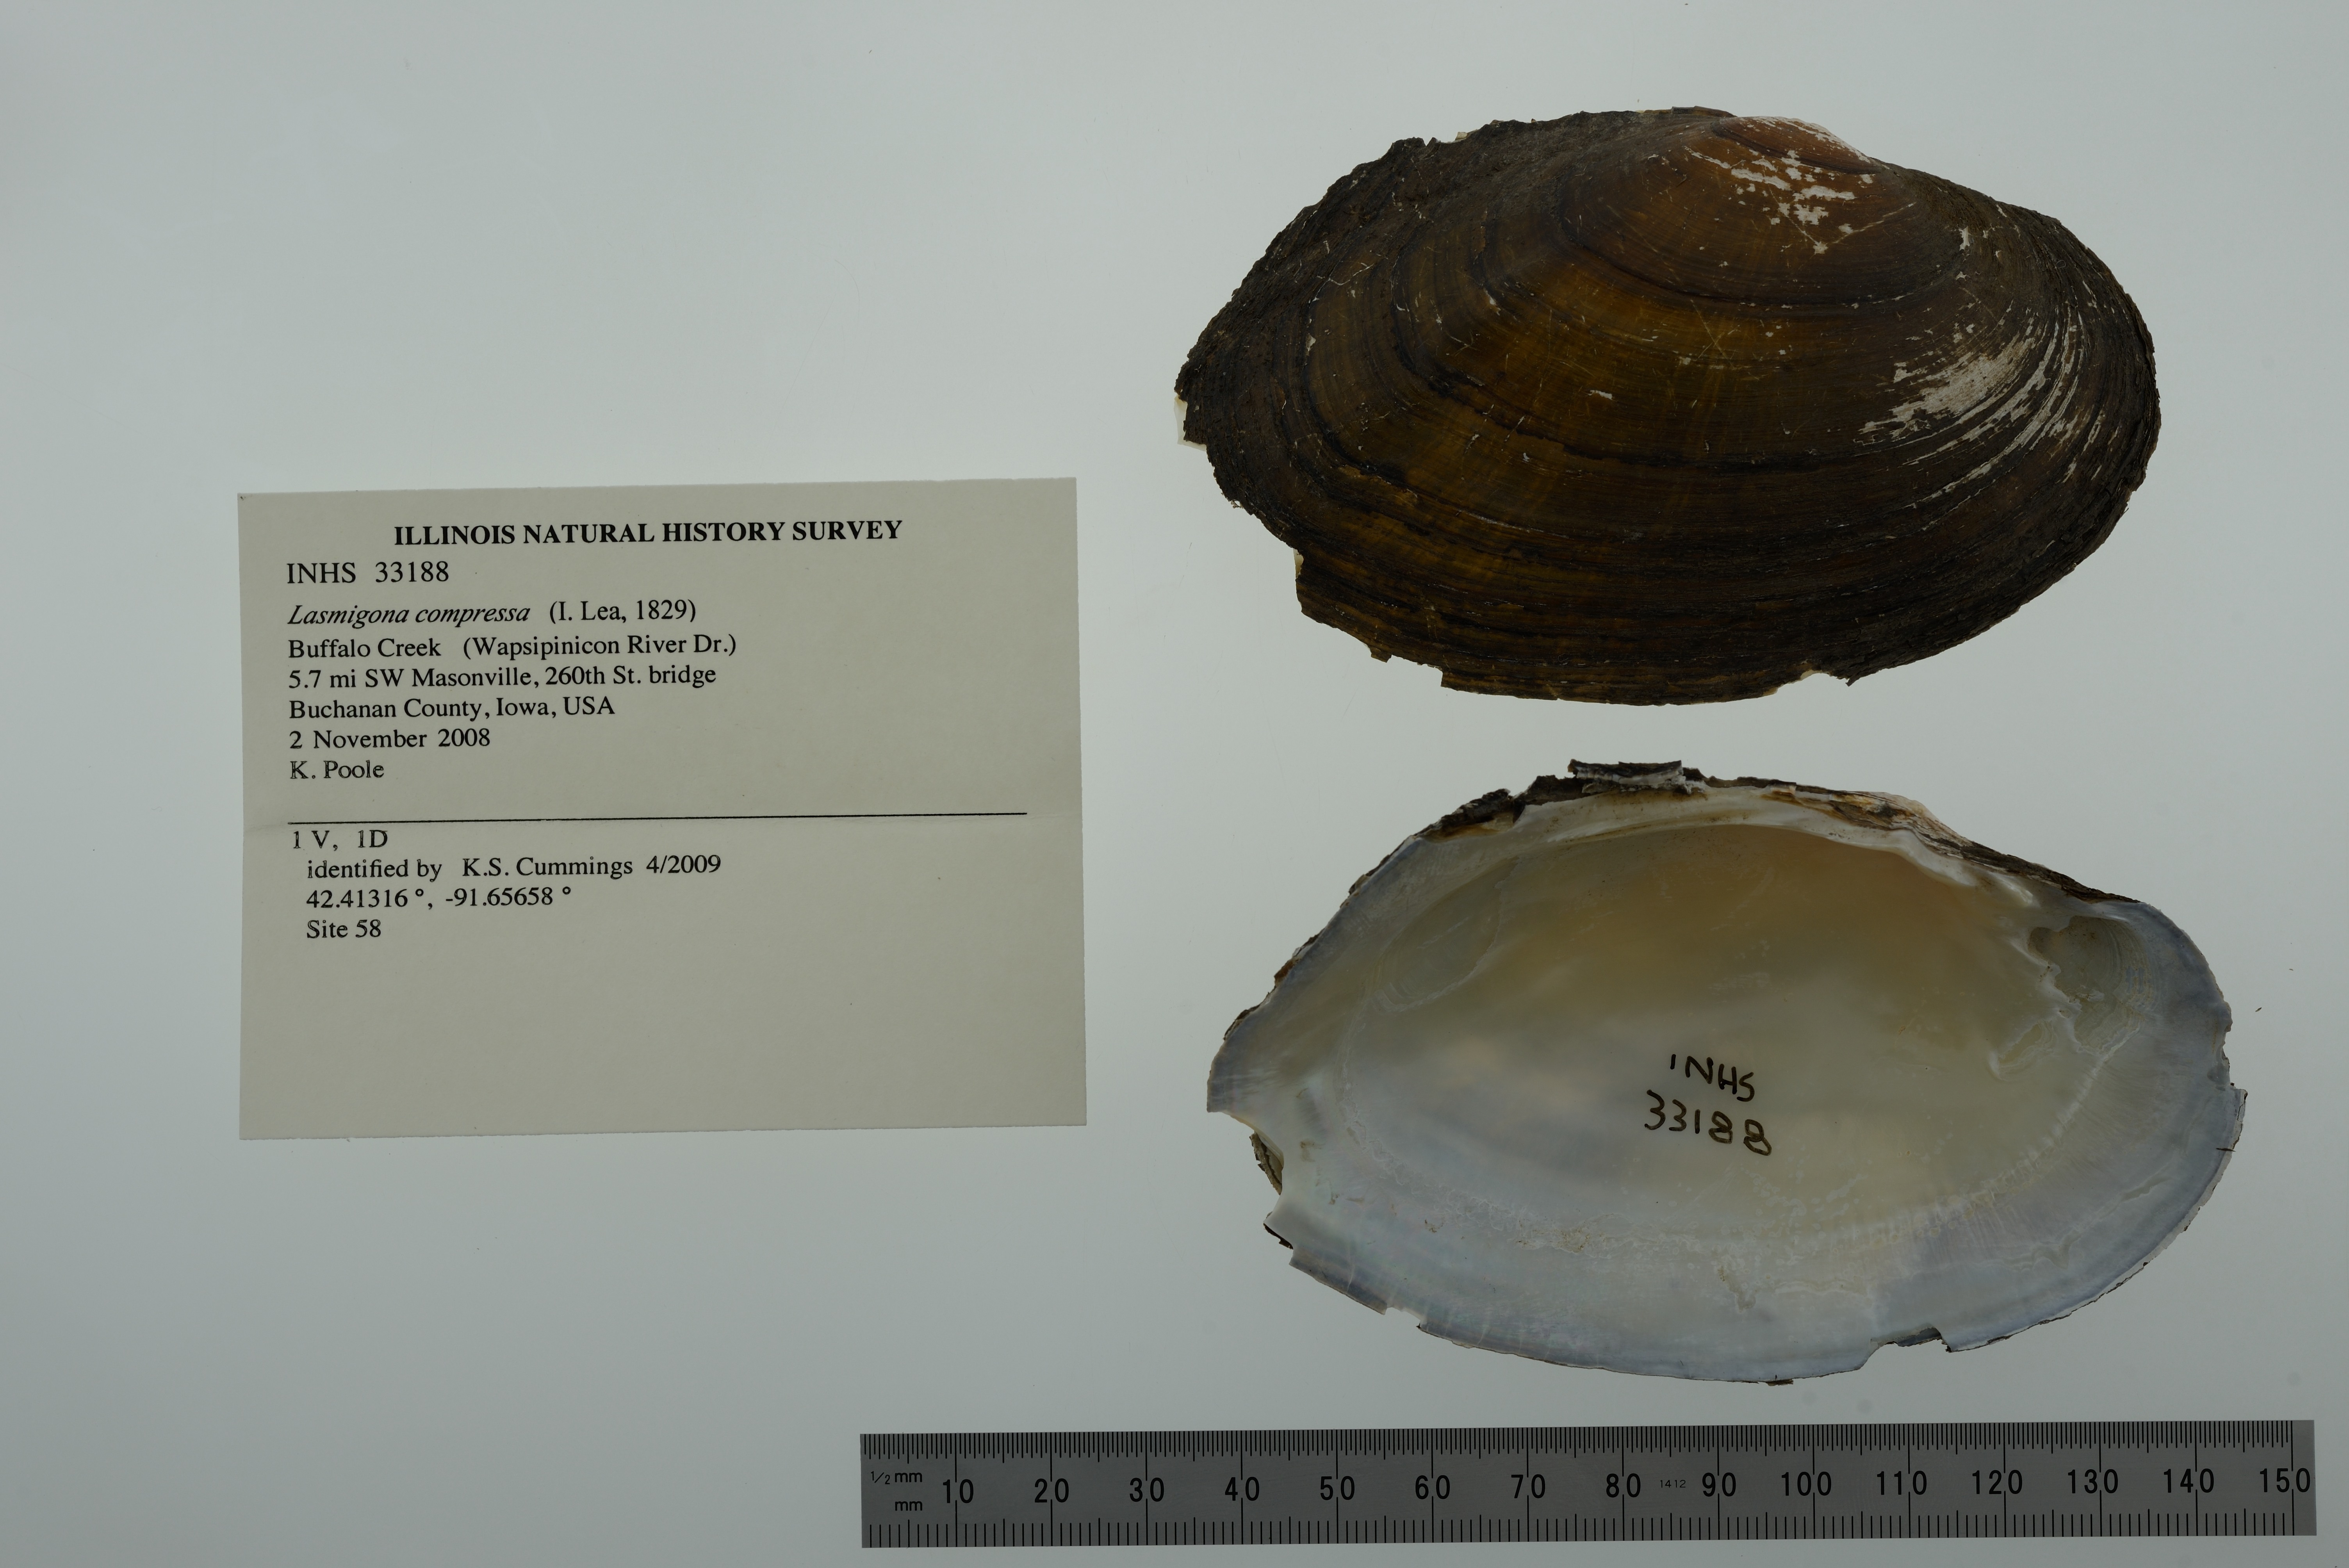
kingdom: Animalia
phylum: Mollusca
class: Bivalvia
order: Unionida
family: Unionidae
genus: Lasmigona
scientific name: Lasmigona compressa
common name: Creek heelsplitter
